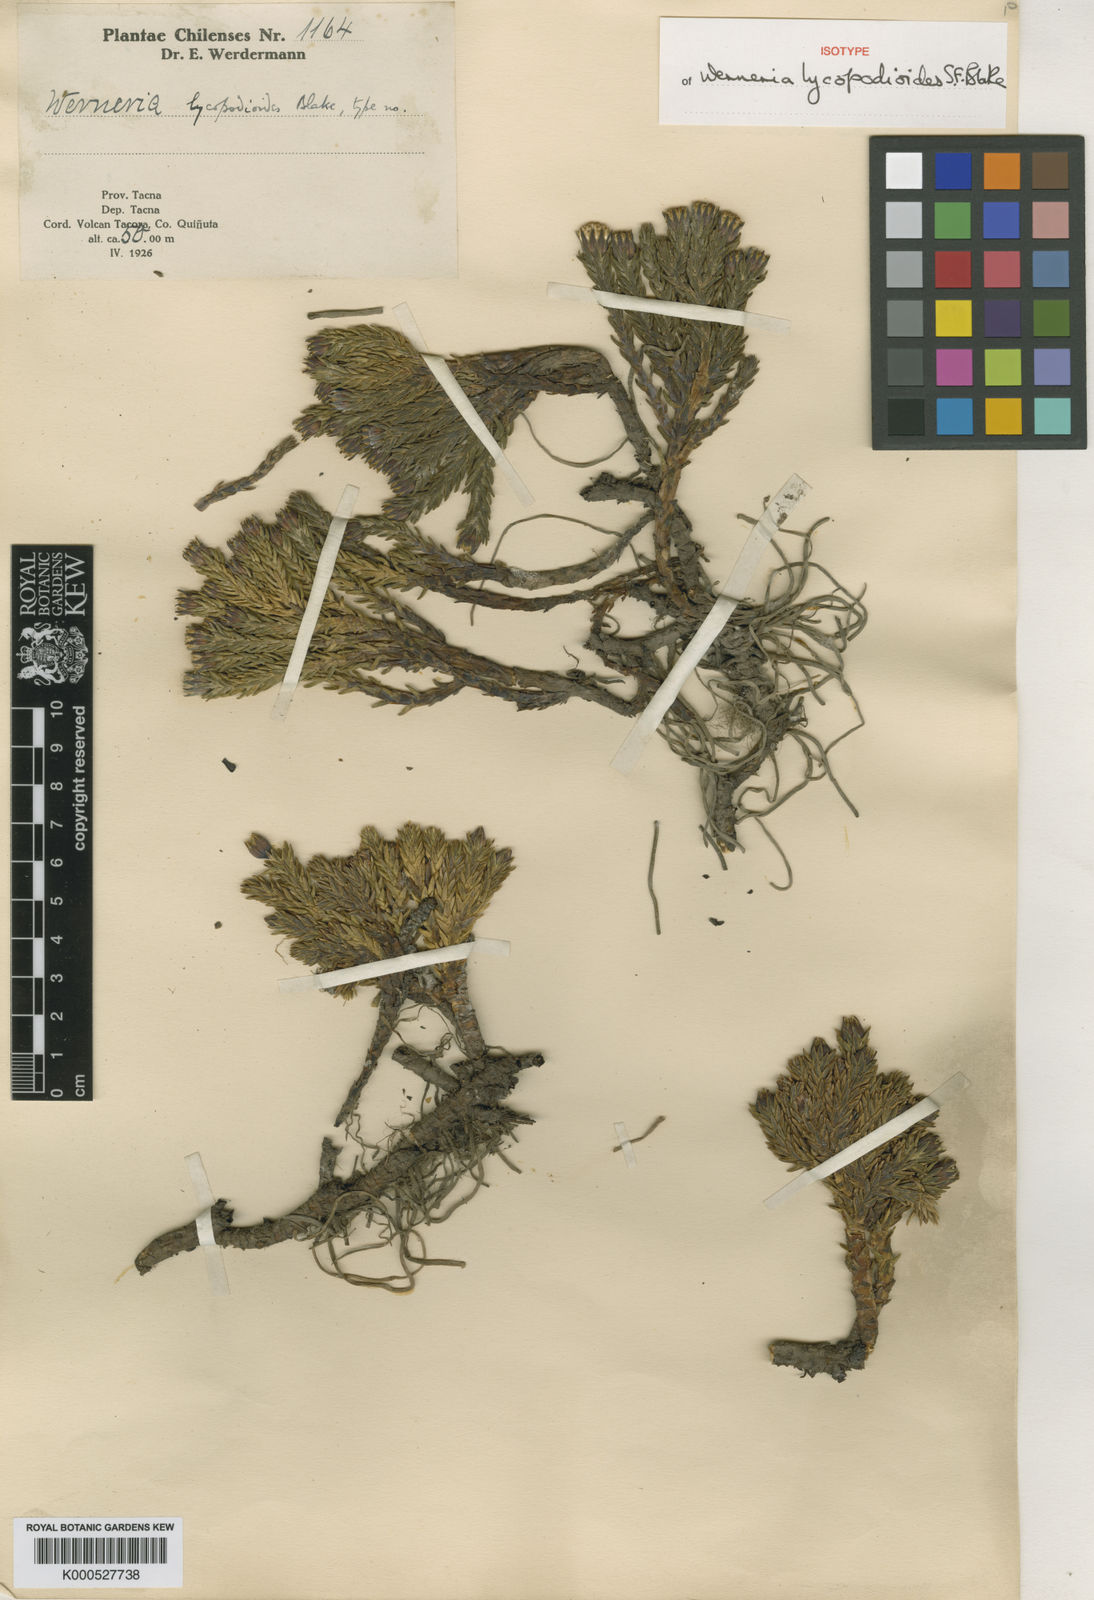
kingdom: Plantae
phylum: Tracheophyta
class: Magnoliopsida
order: Asterales
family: Asteraceae
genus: Werneria
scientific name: Werneria ciliolata
